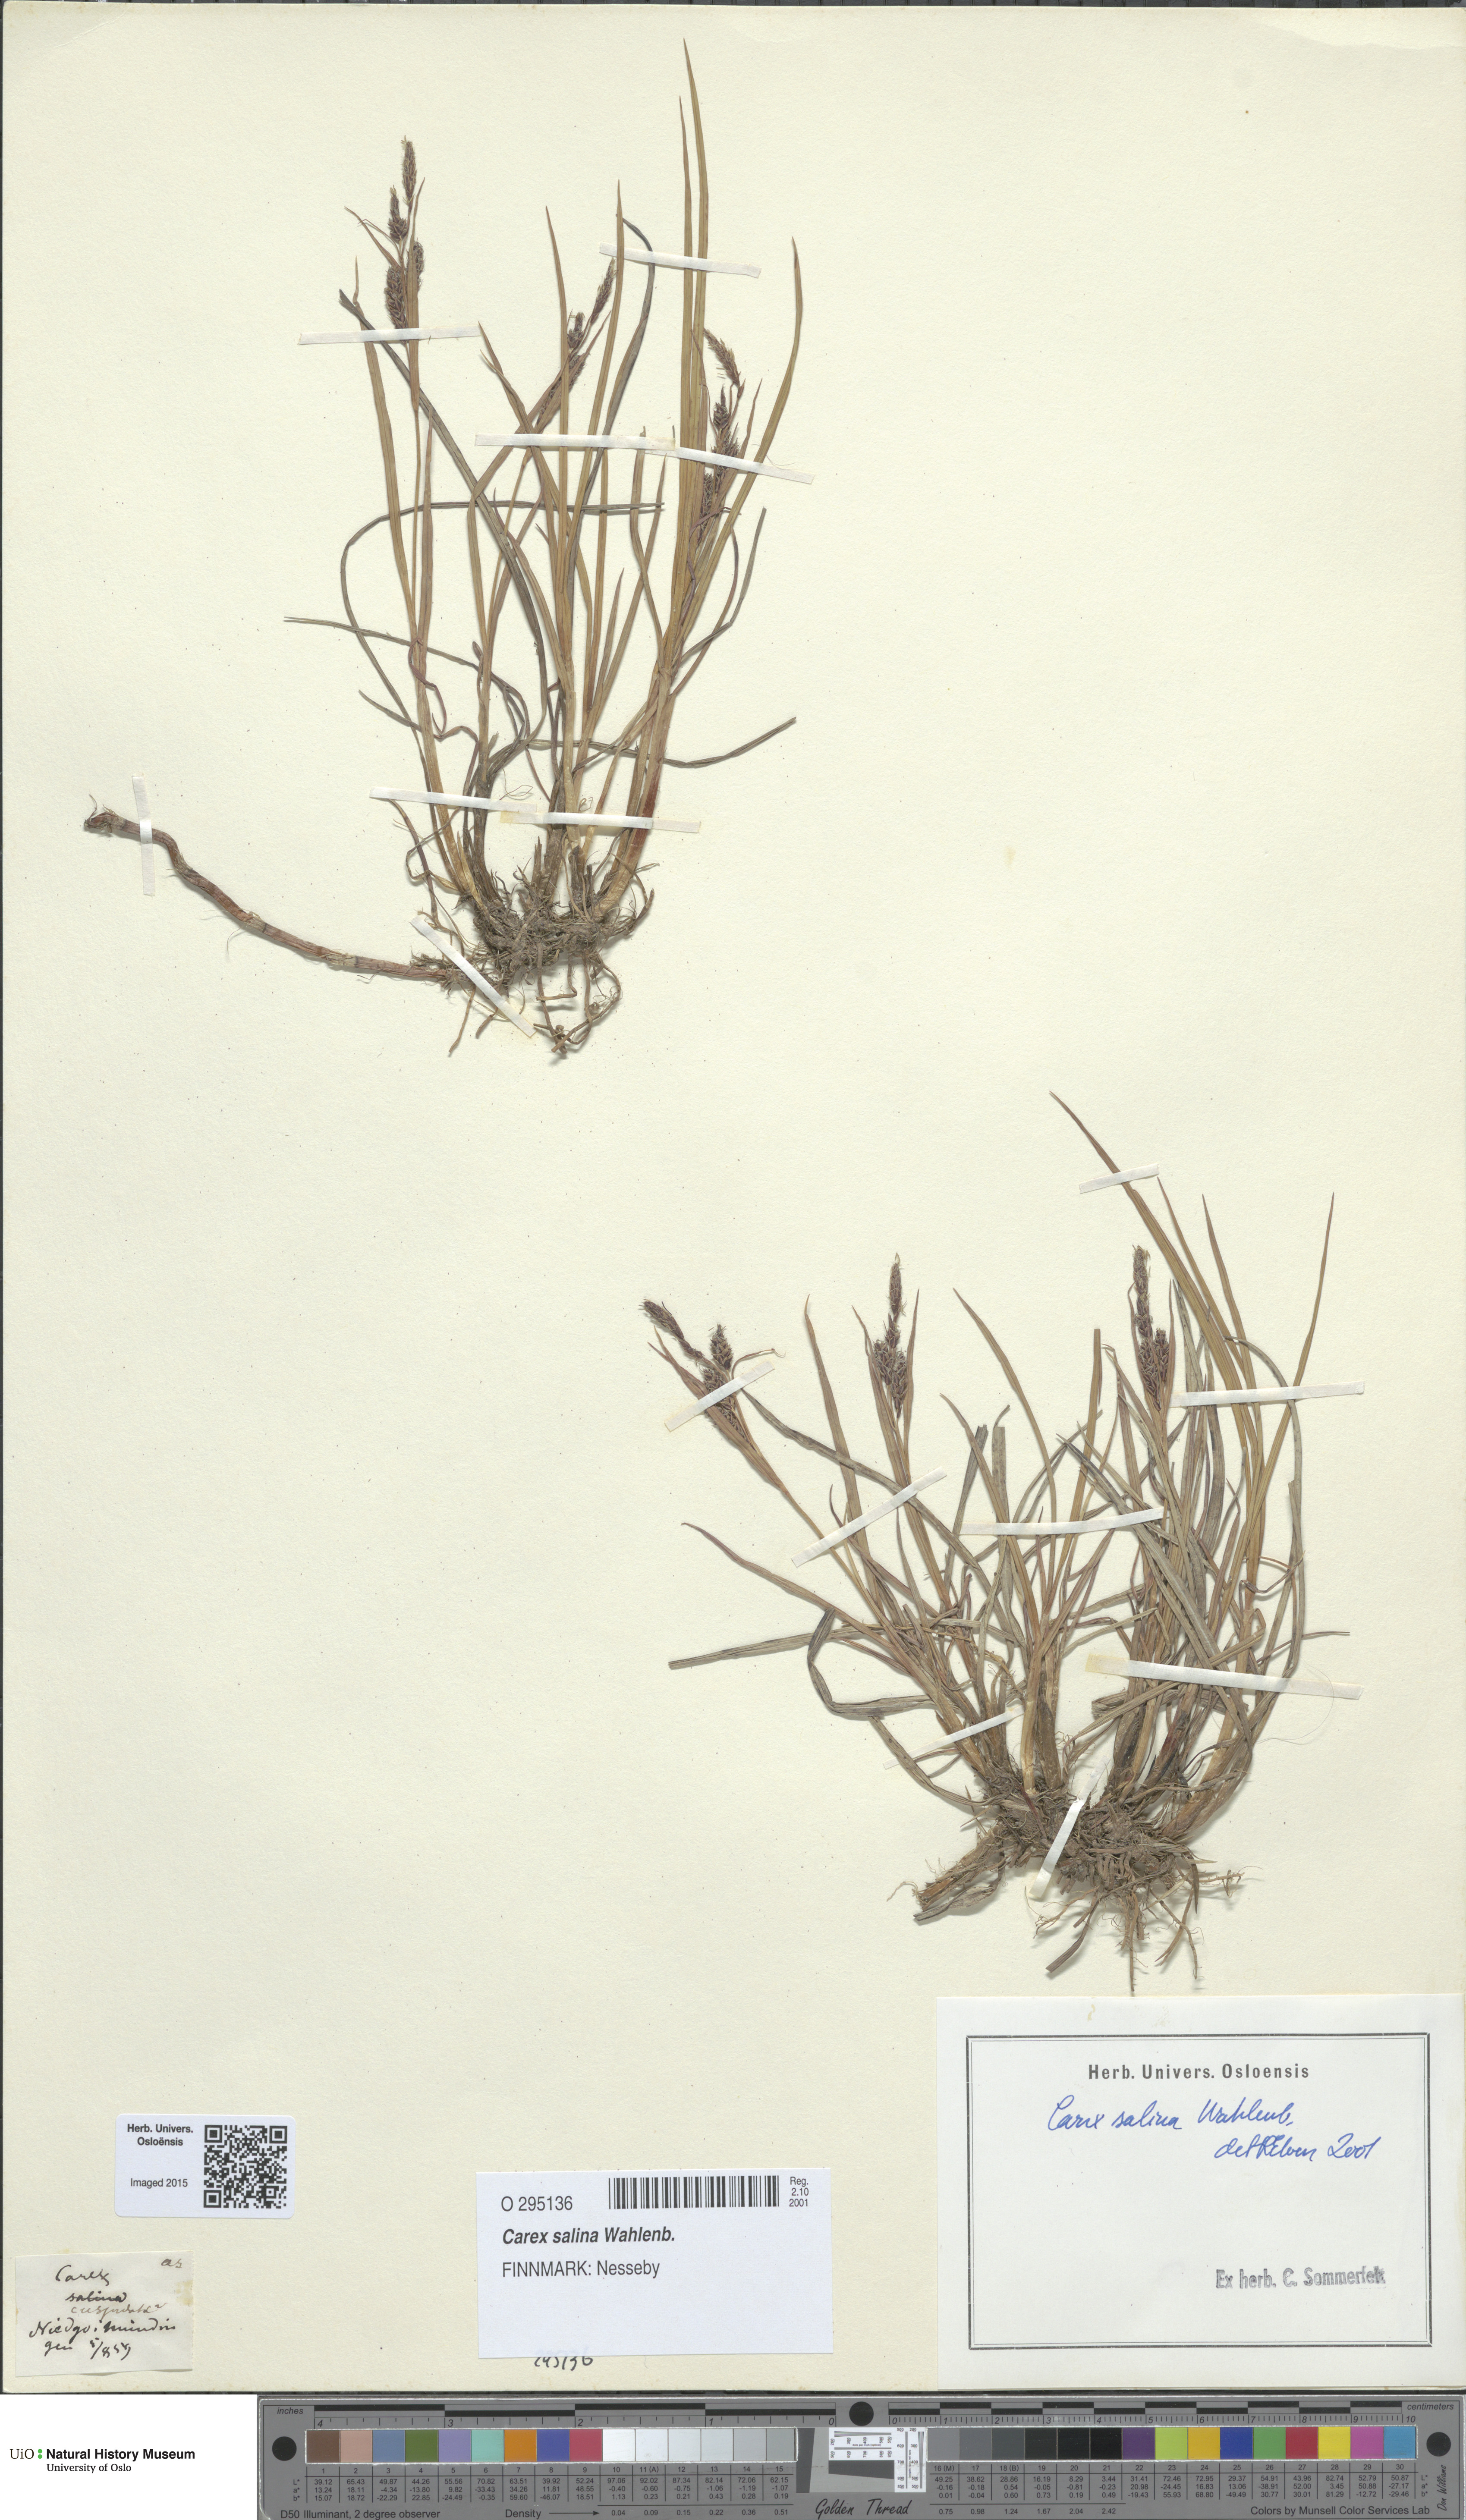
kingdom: Plantae
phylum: Tracheophyta
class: Liliopsida
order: Poales
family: Cyperaceae
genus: Carex
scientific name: Carex salina
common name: Saltmarsh sedge
